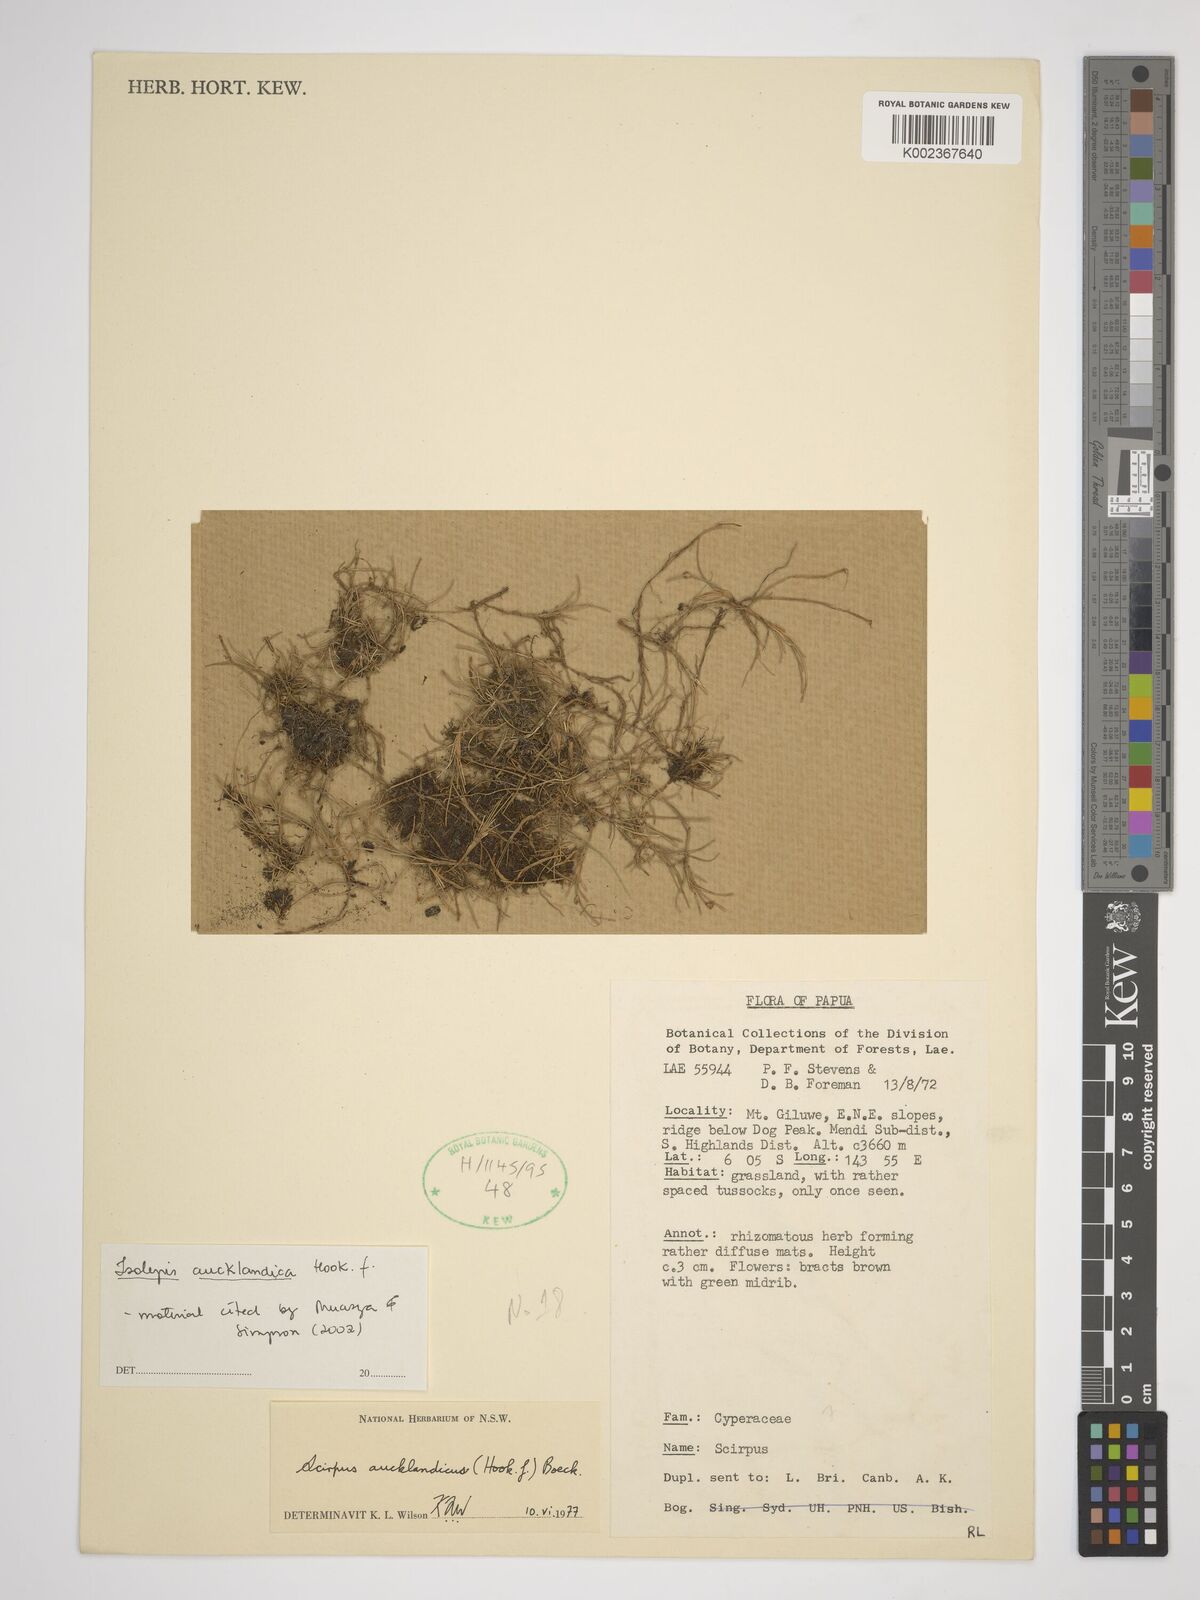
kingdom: Plantae
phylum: Tracheophyta
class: Liliopsida
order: Poales
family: Cyperaceae
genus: Isolepis
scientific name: Isolepis aucklandica
